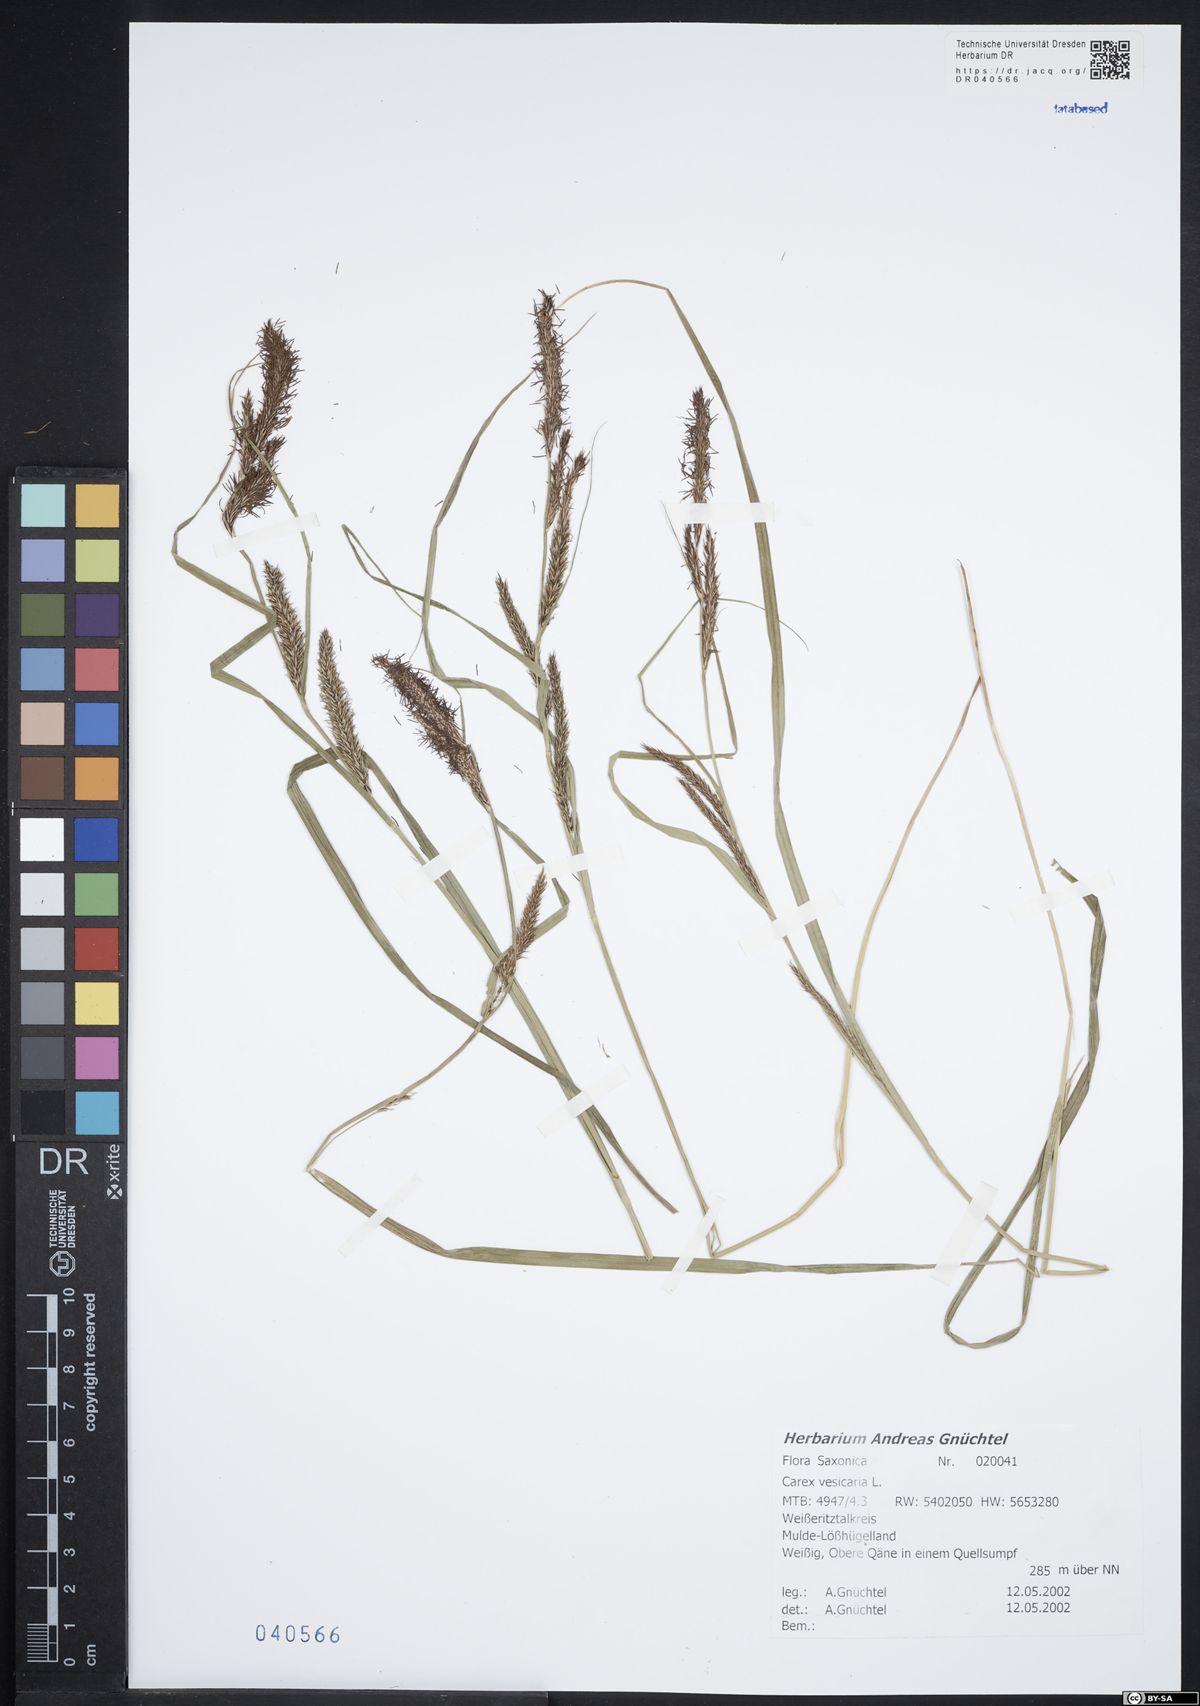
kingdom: Plantae
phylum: Tracheophyta
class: Liliopsida
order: Poales
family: Cyperaceae
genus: Carex
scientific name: Carex vesicaria
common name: Bladder-sedge
